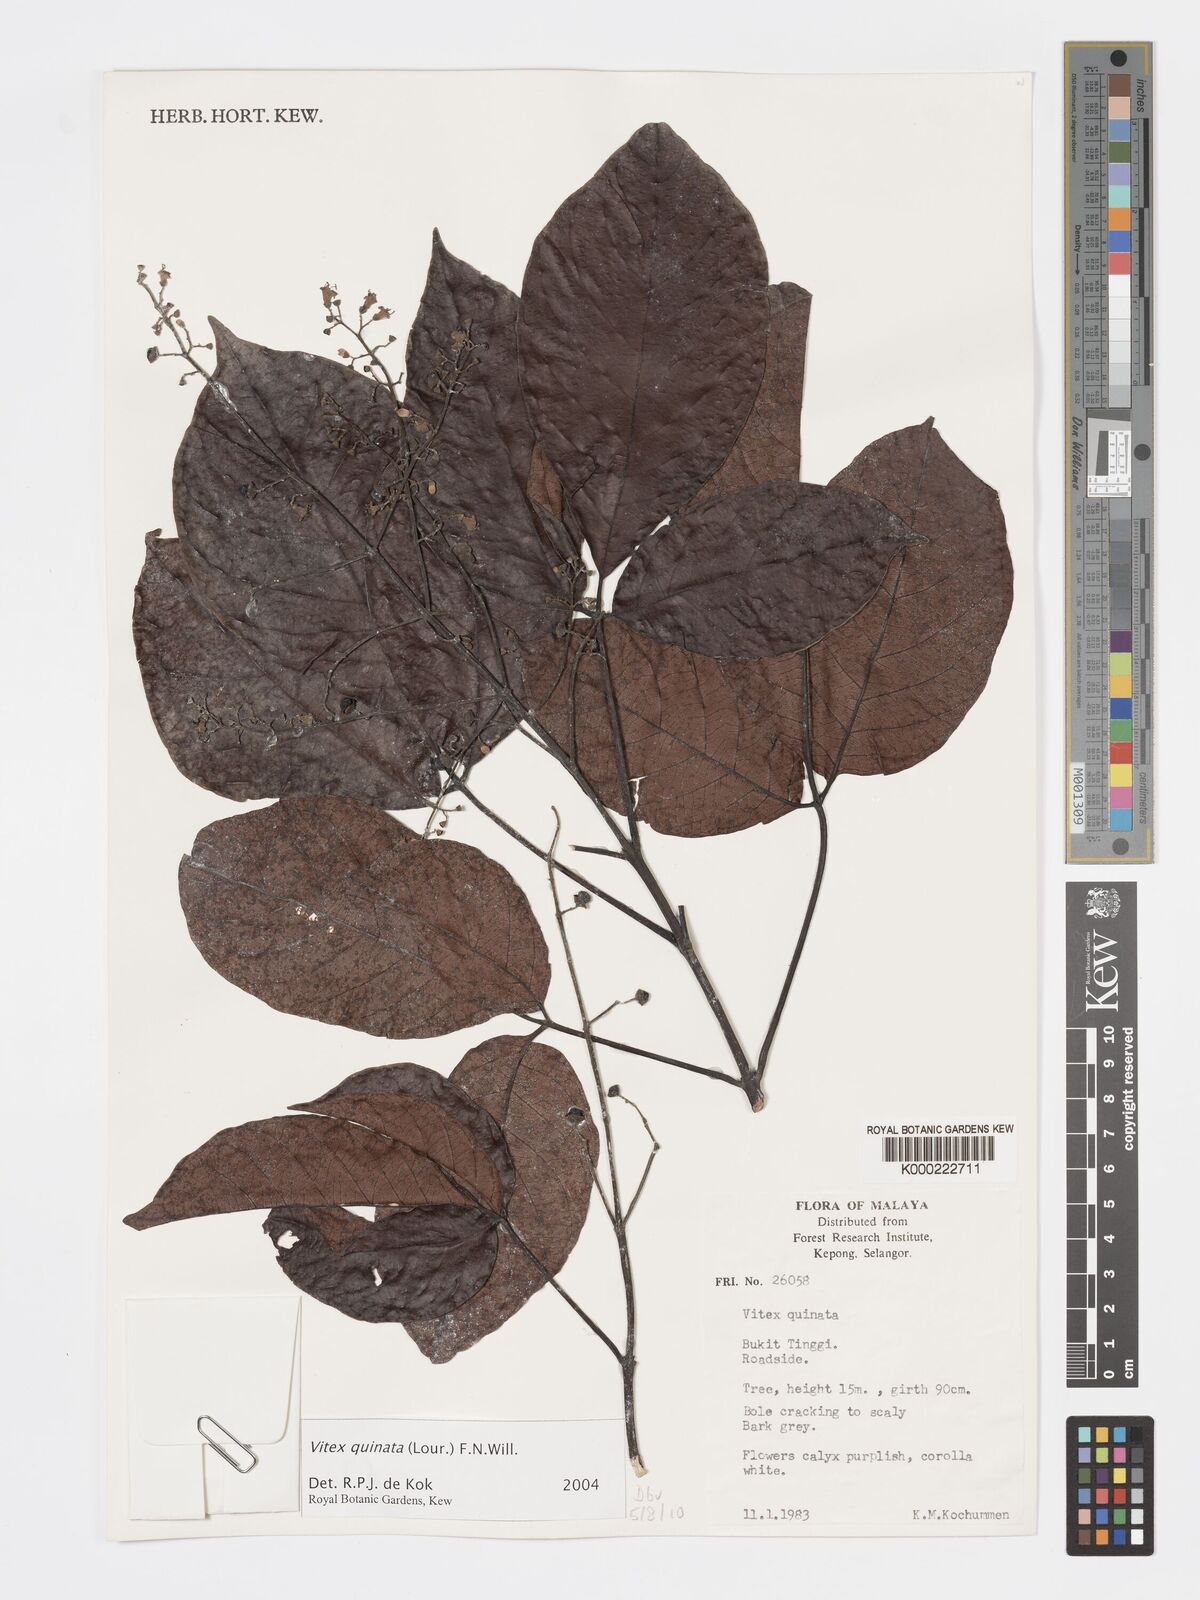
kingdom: Plantae
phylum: Tracheophyta
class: Magnoliopsida
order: Lamiales
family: Lamiaceae
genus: Vitex
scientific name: Vitex quinata
